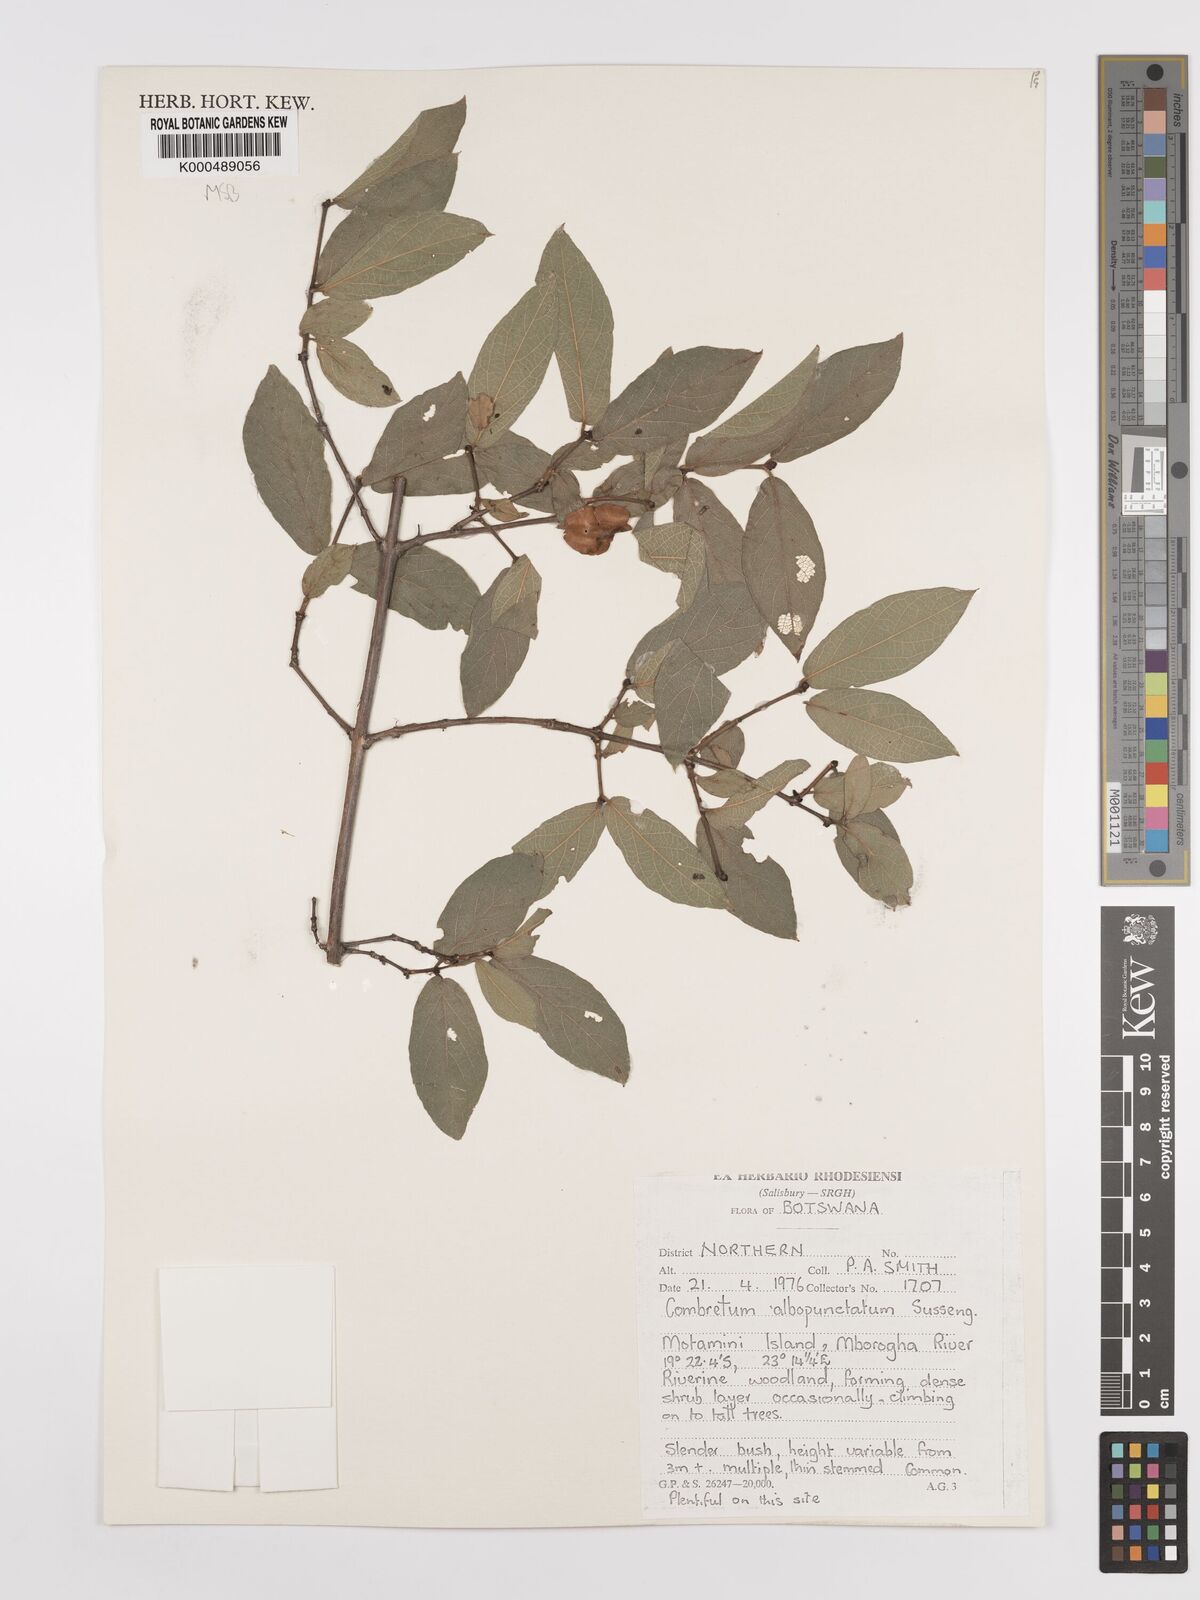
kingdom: Plantae
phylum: Tracheophyta
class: Magnoliopsida
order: Myrtales
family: Combretaceae
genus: Combretum
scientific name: Combretum albopunctatum
